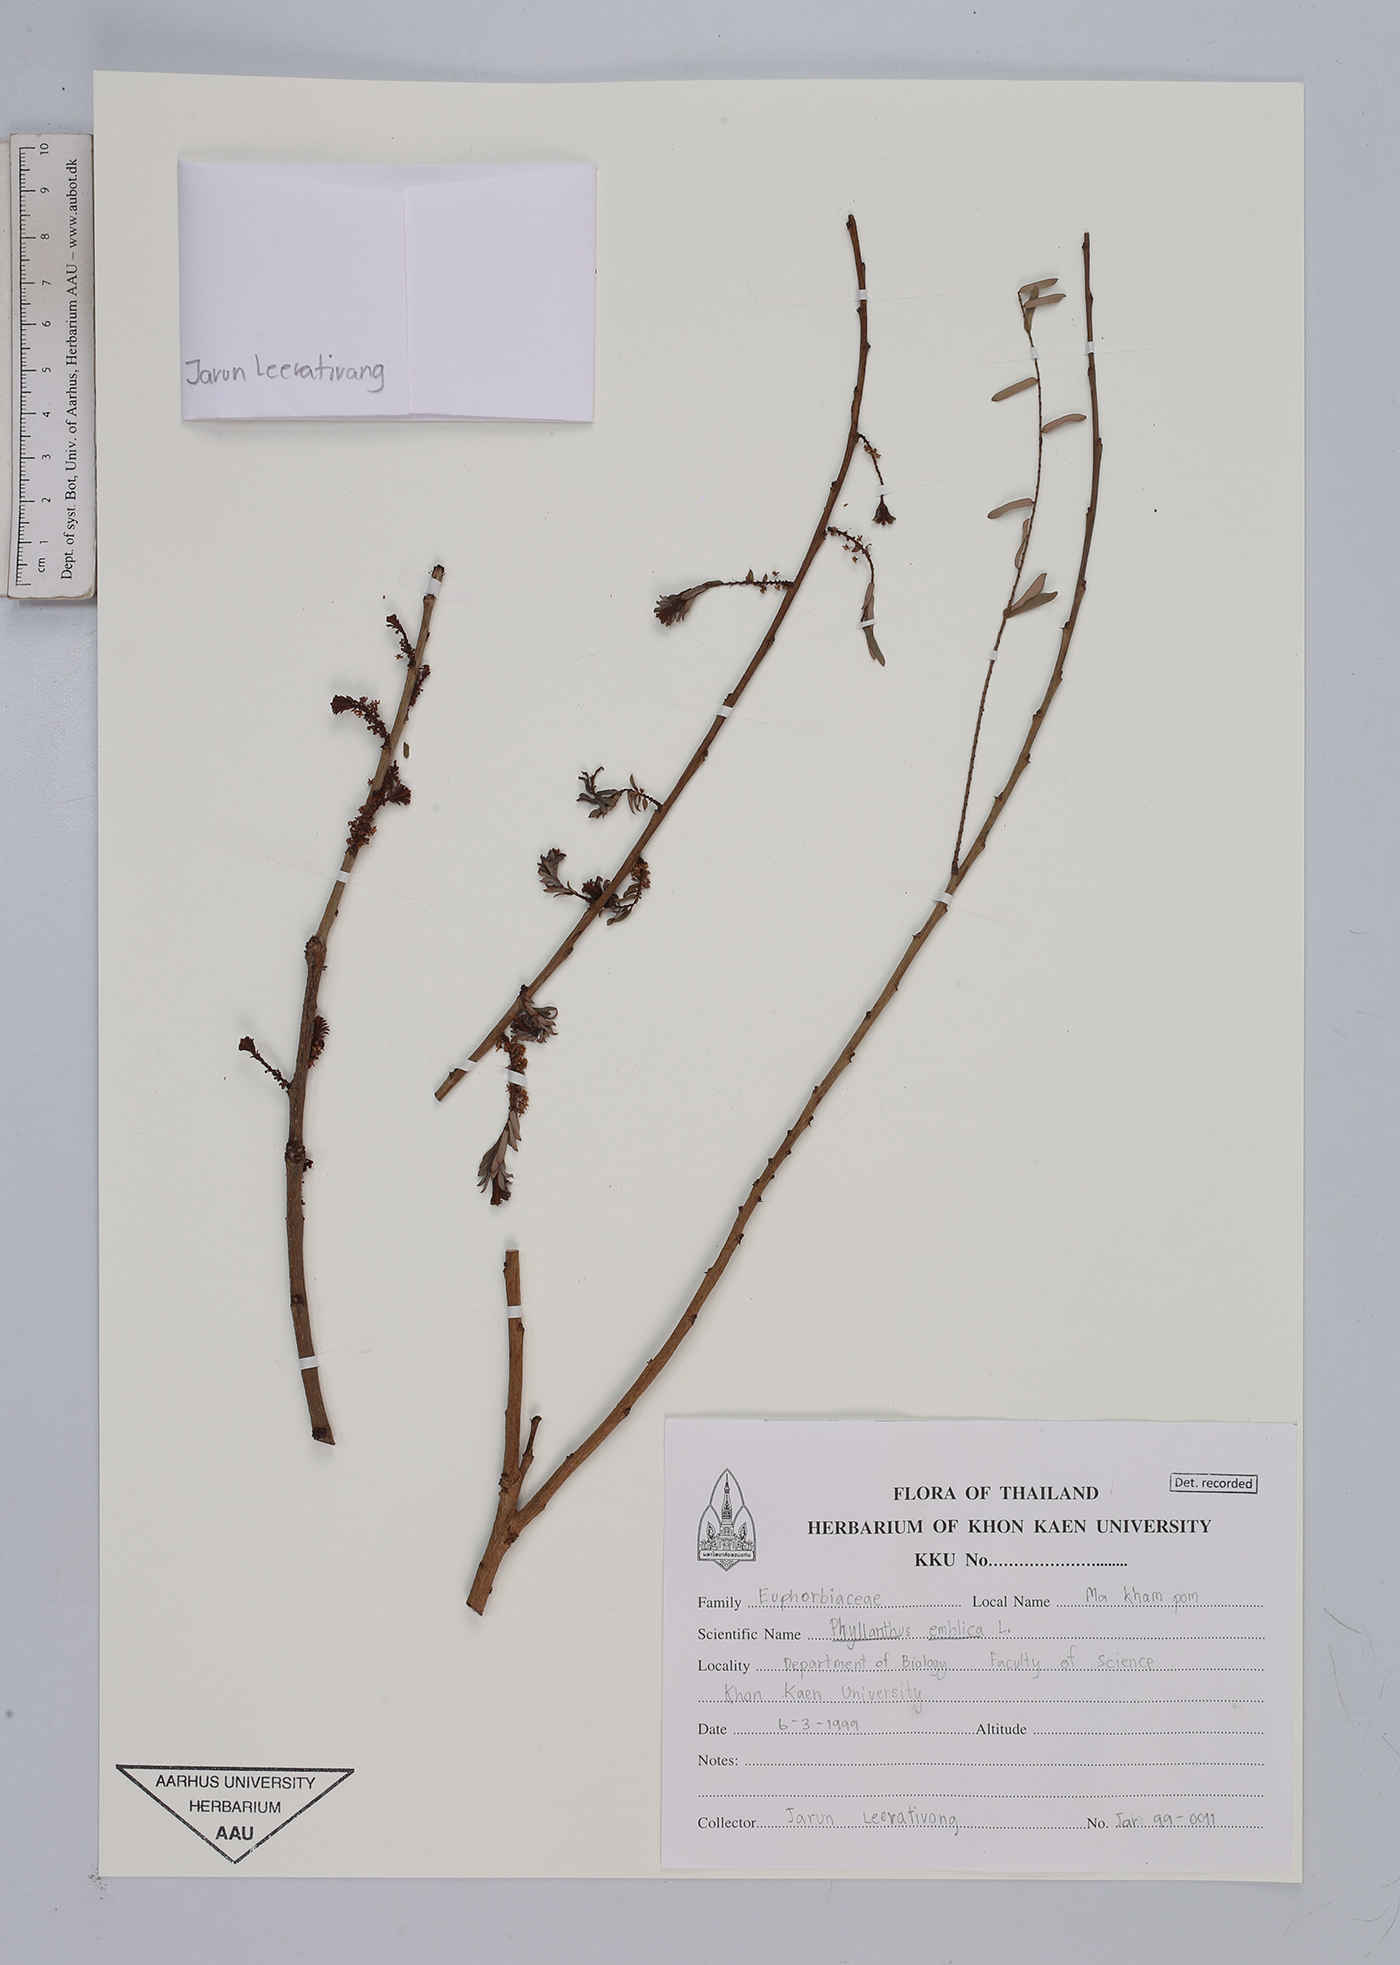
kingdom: Plantae
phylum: Tracheophyta
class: Magnoliopsida
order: Malpighiales
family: Phyllanthaceae
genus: Phyllanthus
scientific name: Phyllanthus emblica
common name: Indian gooseberry
